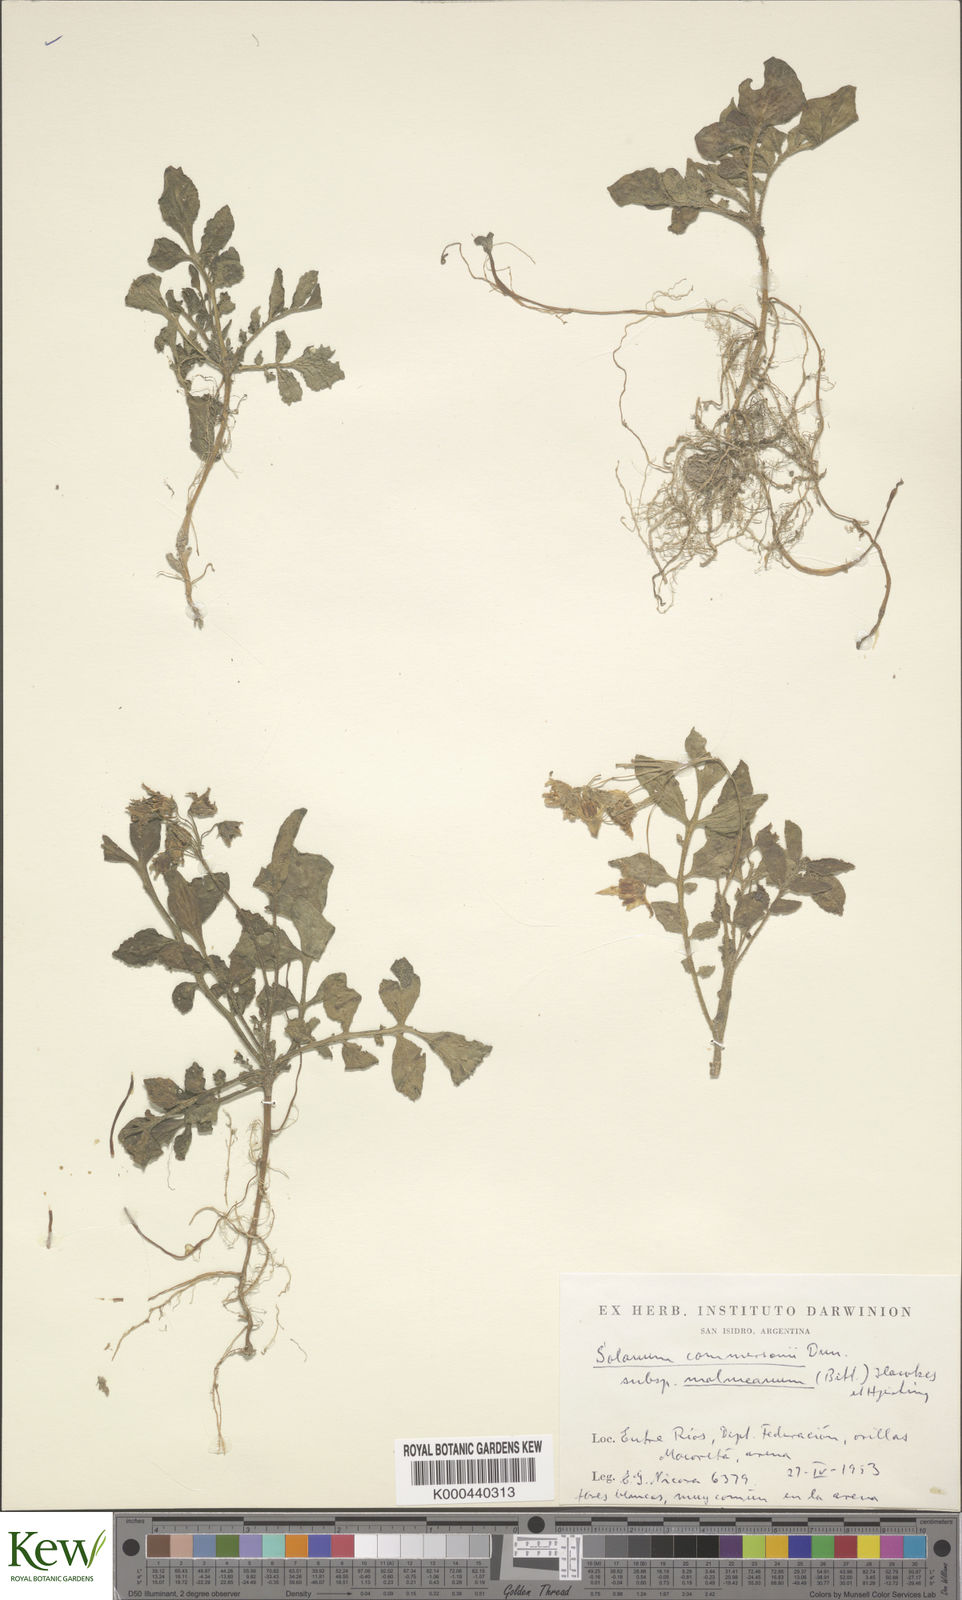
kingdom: Plantae
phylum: Tracheophyta
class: Magnoliopsida
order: Solanales
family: Solanaceae
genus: Solanum
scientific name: Solanum malmeanum
